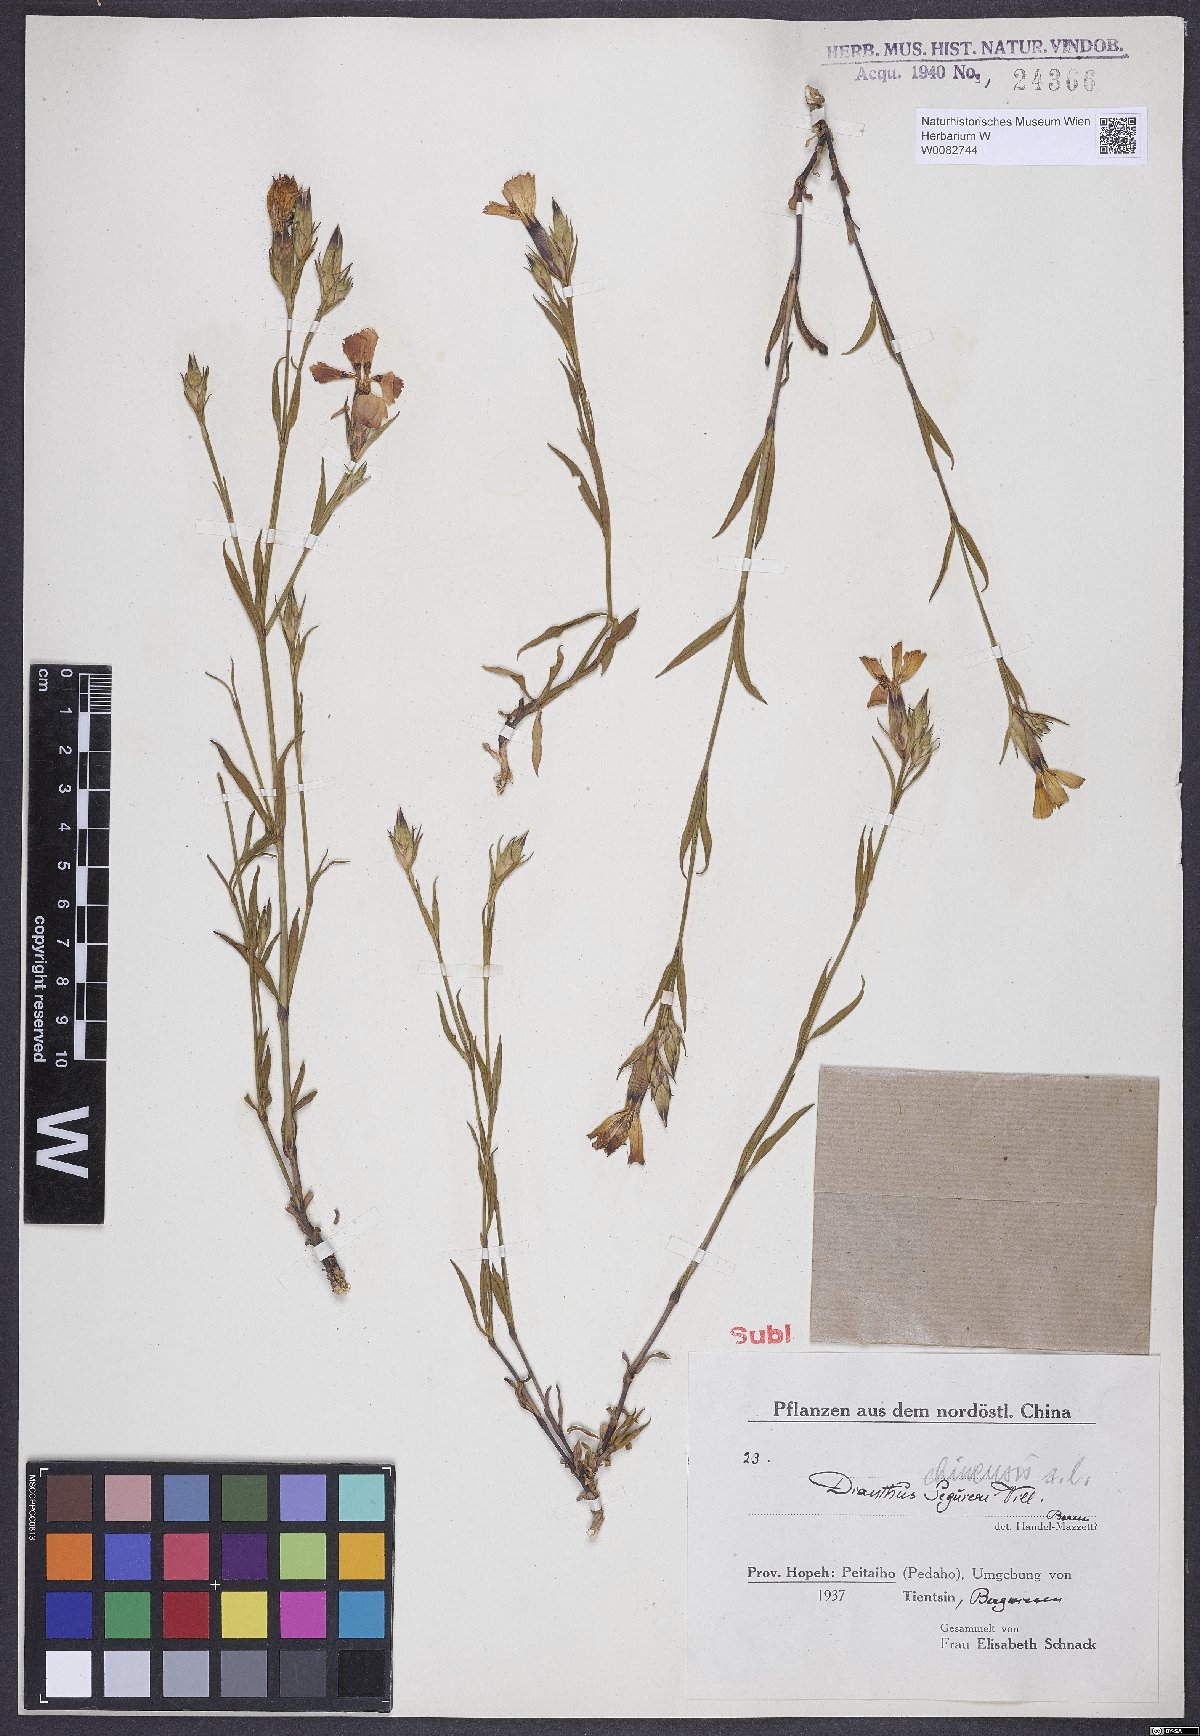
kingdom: Plantae
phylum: Tracheophyta
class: Magnoliopsida
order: Caryophyllales
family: Caryophyllaceae
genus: Dianthus
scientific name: Dianthus chinensis
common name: Rainbow pink
